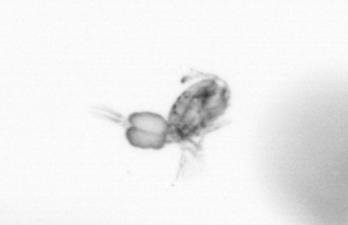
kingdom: Animalia
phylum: Arthropoda
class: Copepoda
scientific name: Copepoda
